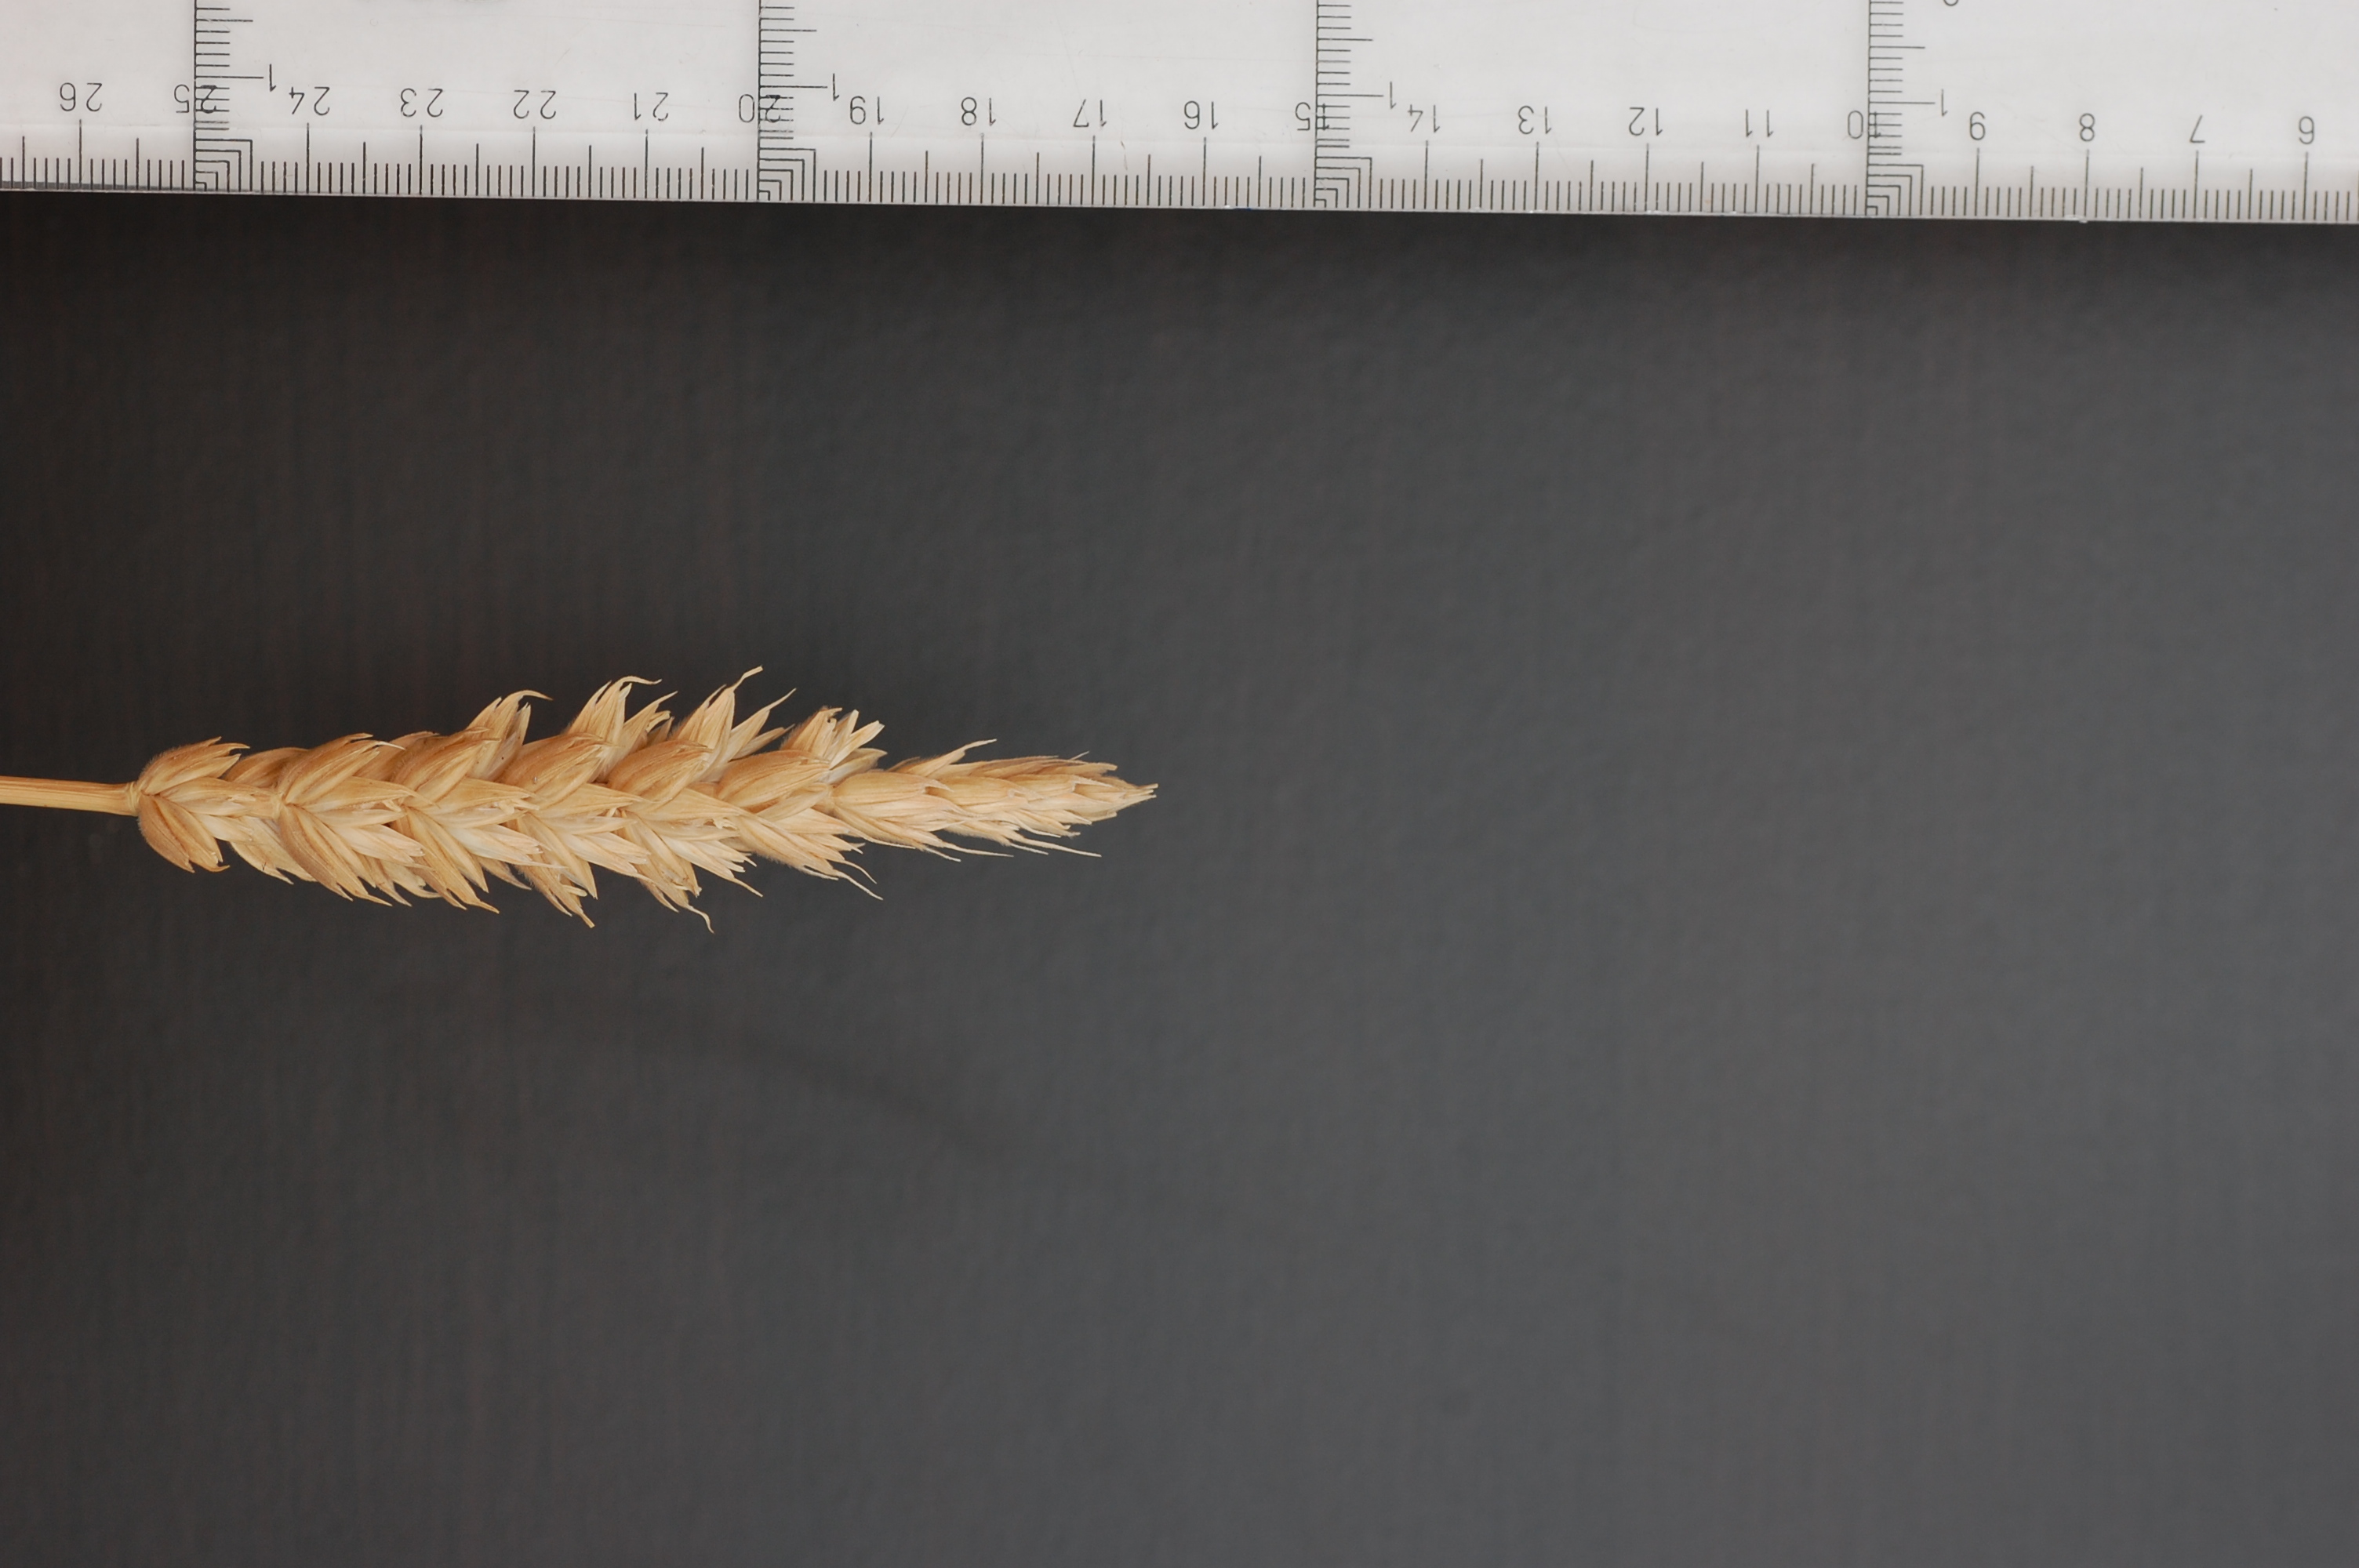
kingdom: Plantae
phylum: Tracheophyta
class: Liliopsida
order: Poales
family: Poaceae
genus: Triticum
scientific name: Triticum aestivum
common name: Common wheat
